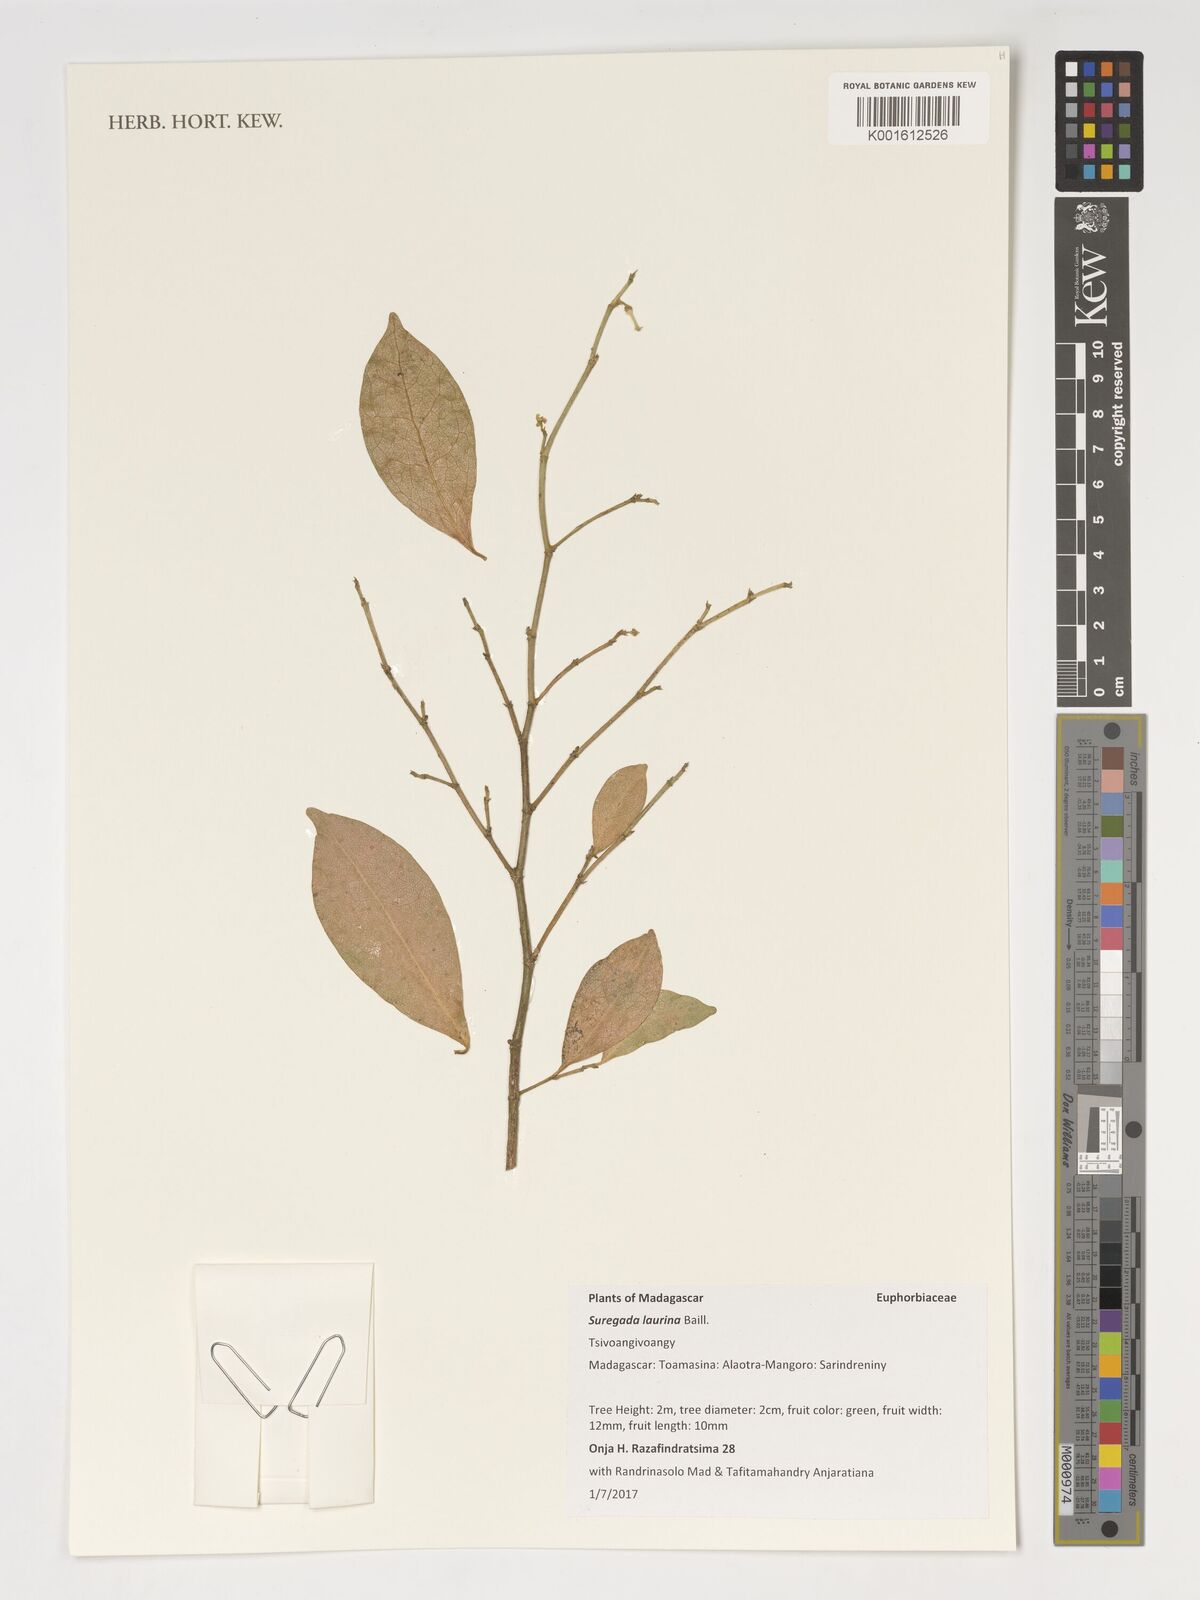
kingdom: Plantae
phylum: Tracheophyta
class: Magnoliopsida
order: Malpighiales
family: Euphorbiaceae
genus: Suregada
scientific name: Suregada laurina
